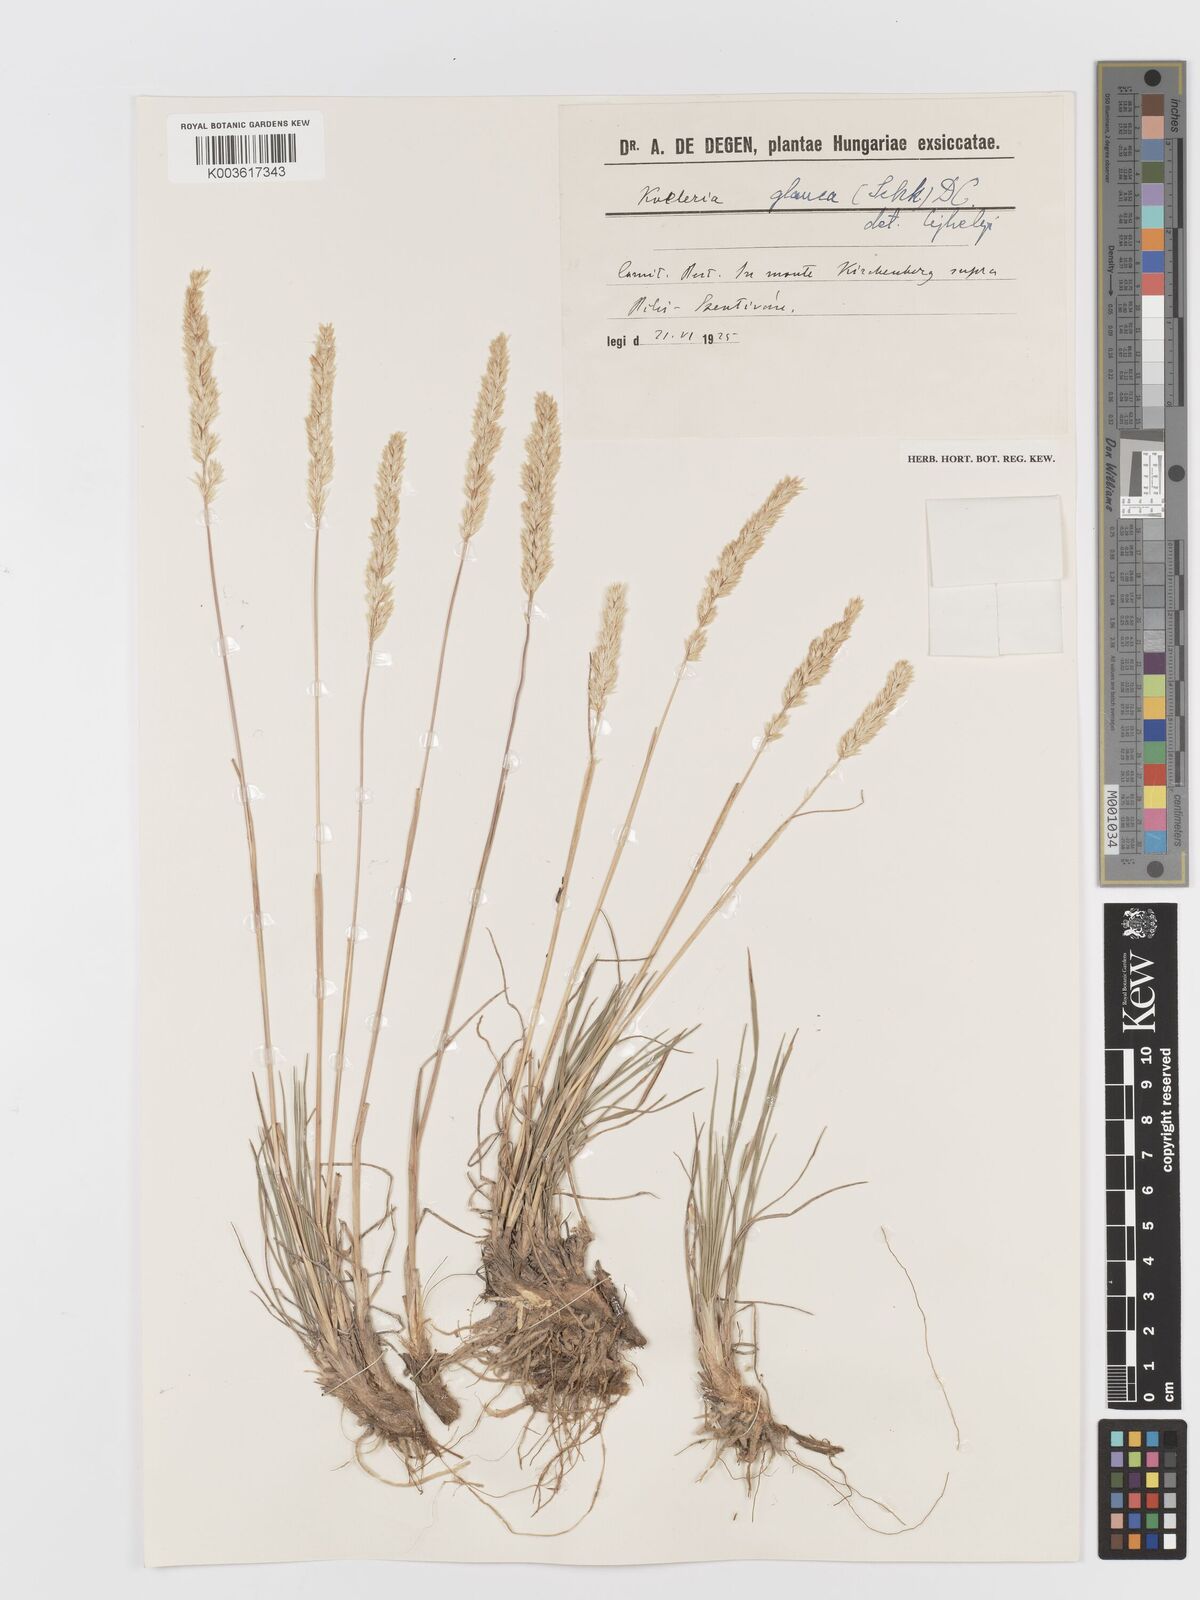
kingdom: Plantae
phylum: Tracheophyta
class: Liliopsida
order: Poales
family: Poaceae
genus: Koeleria
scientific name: Koeleria glauca
